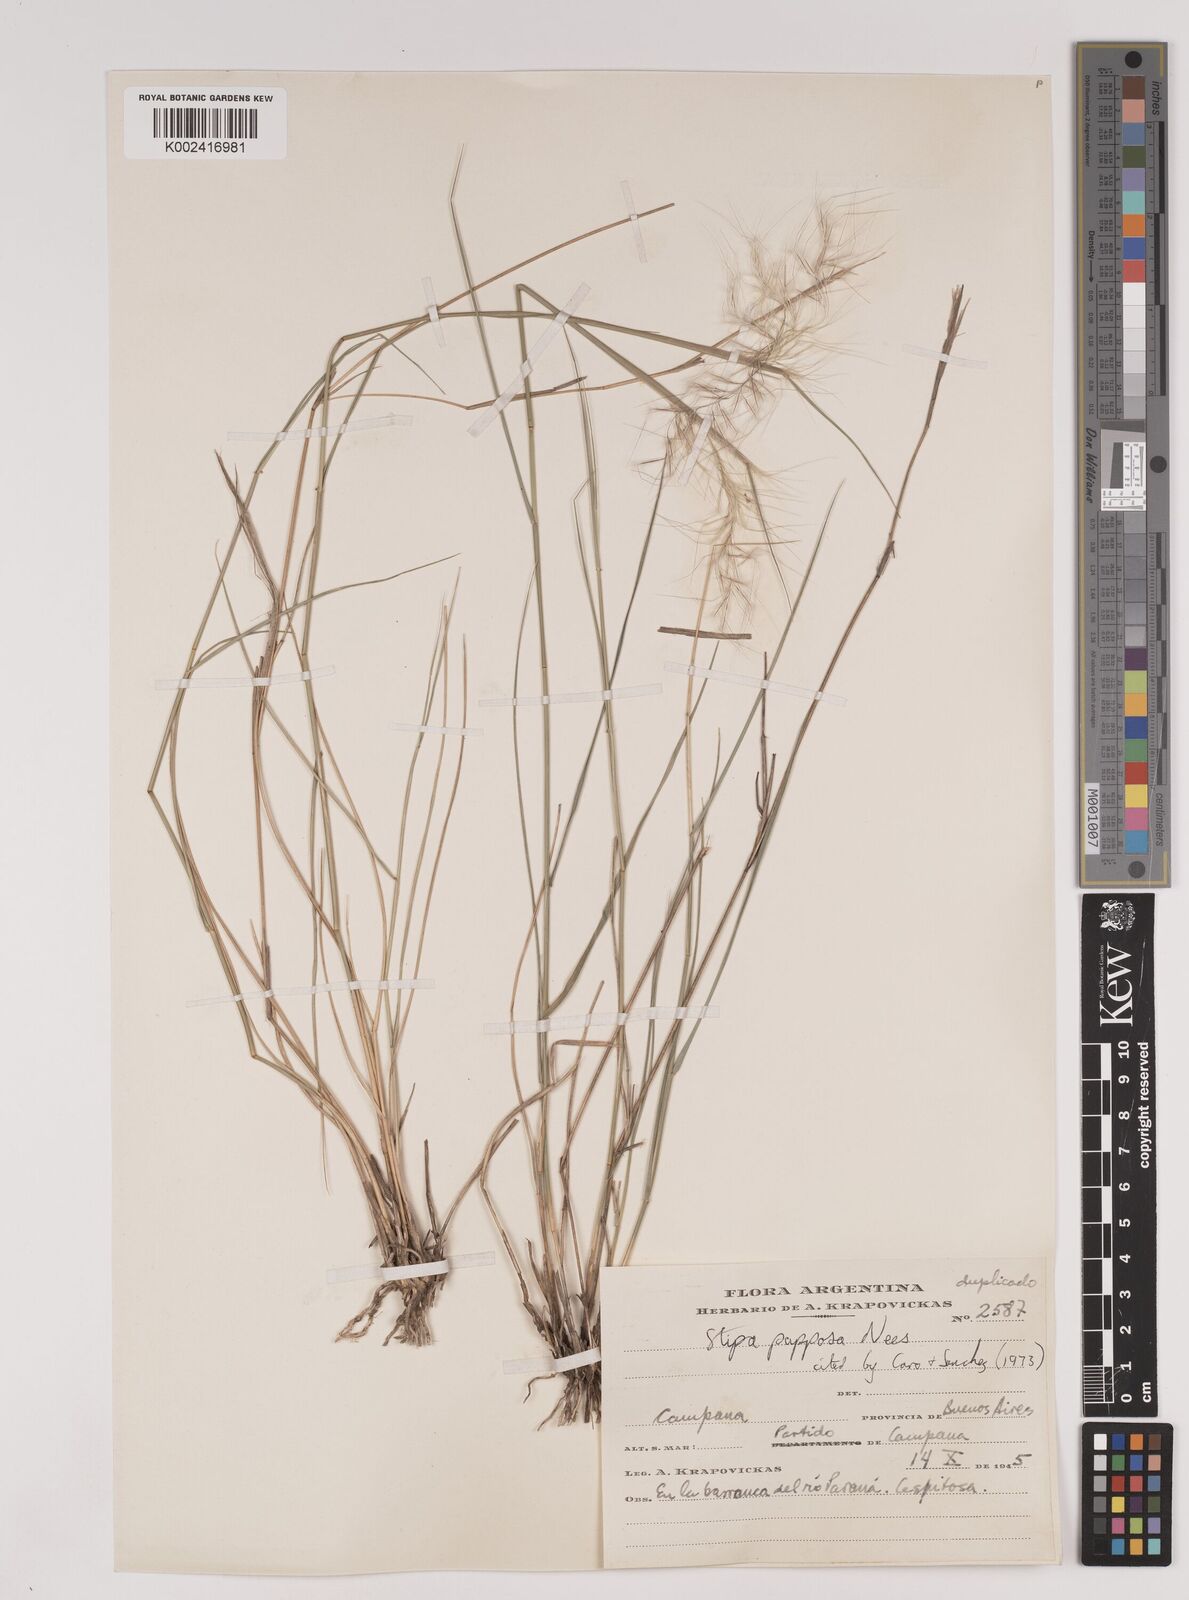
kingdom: Plantae
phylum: Tracheophyta
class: Liliopsida
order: Poales
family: Poaceae
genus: Jarava
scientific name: Jarava plumosa
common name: South american rice grass
